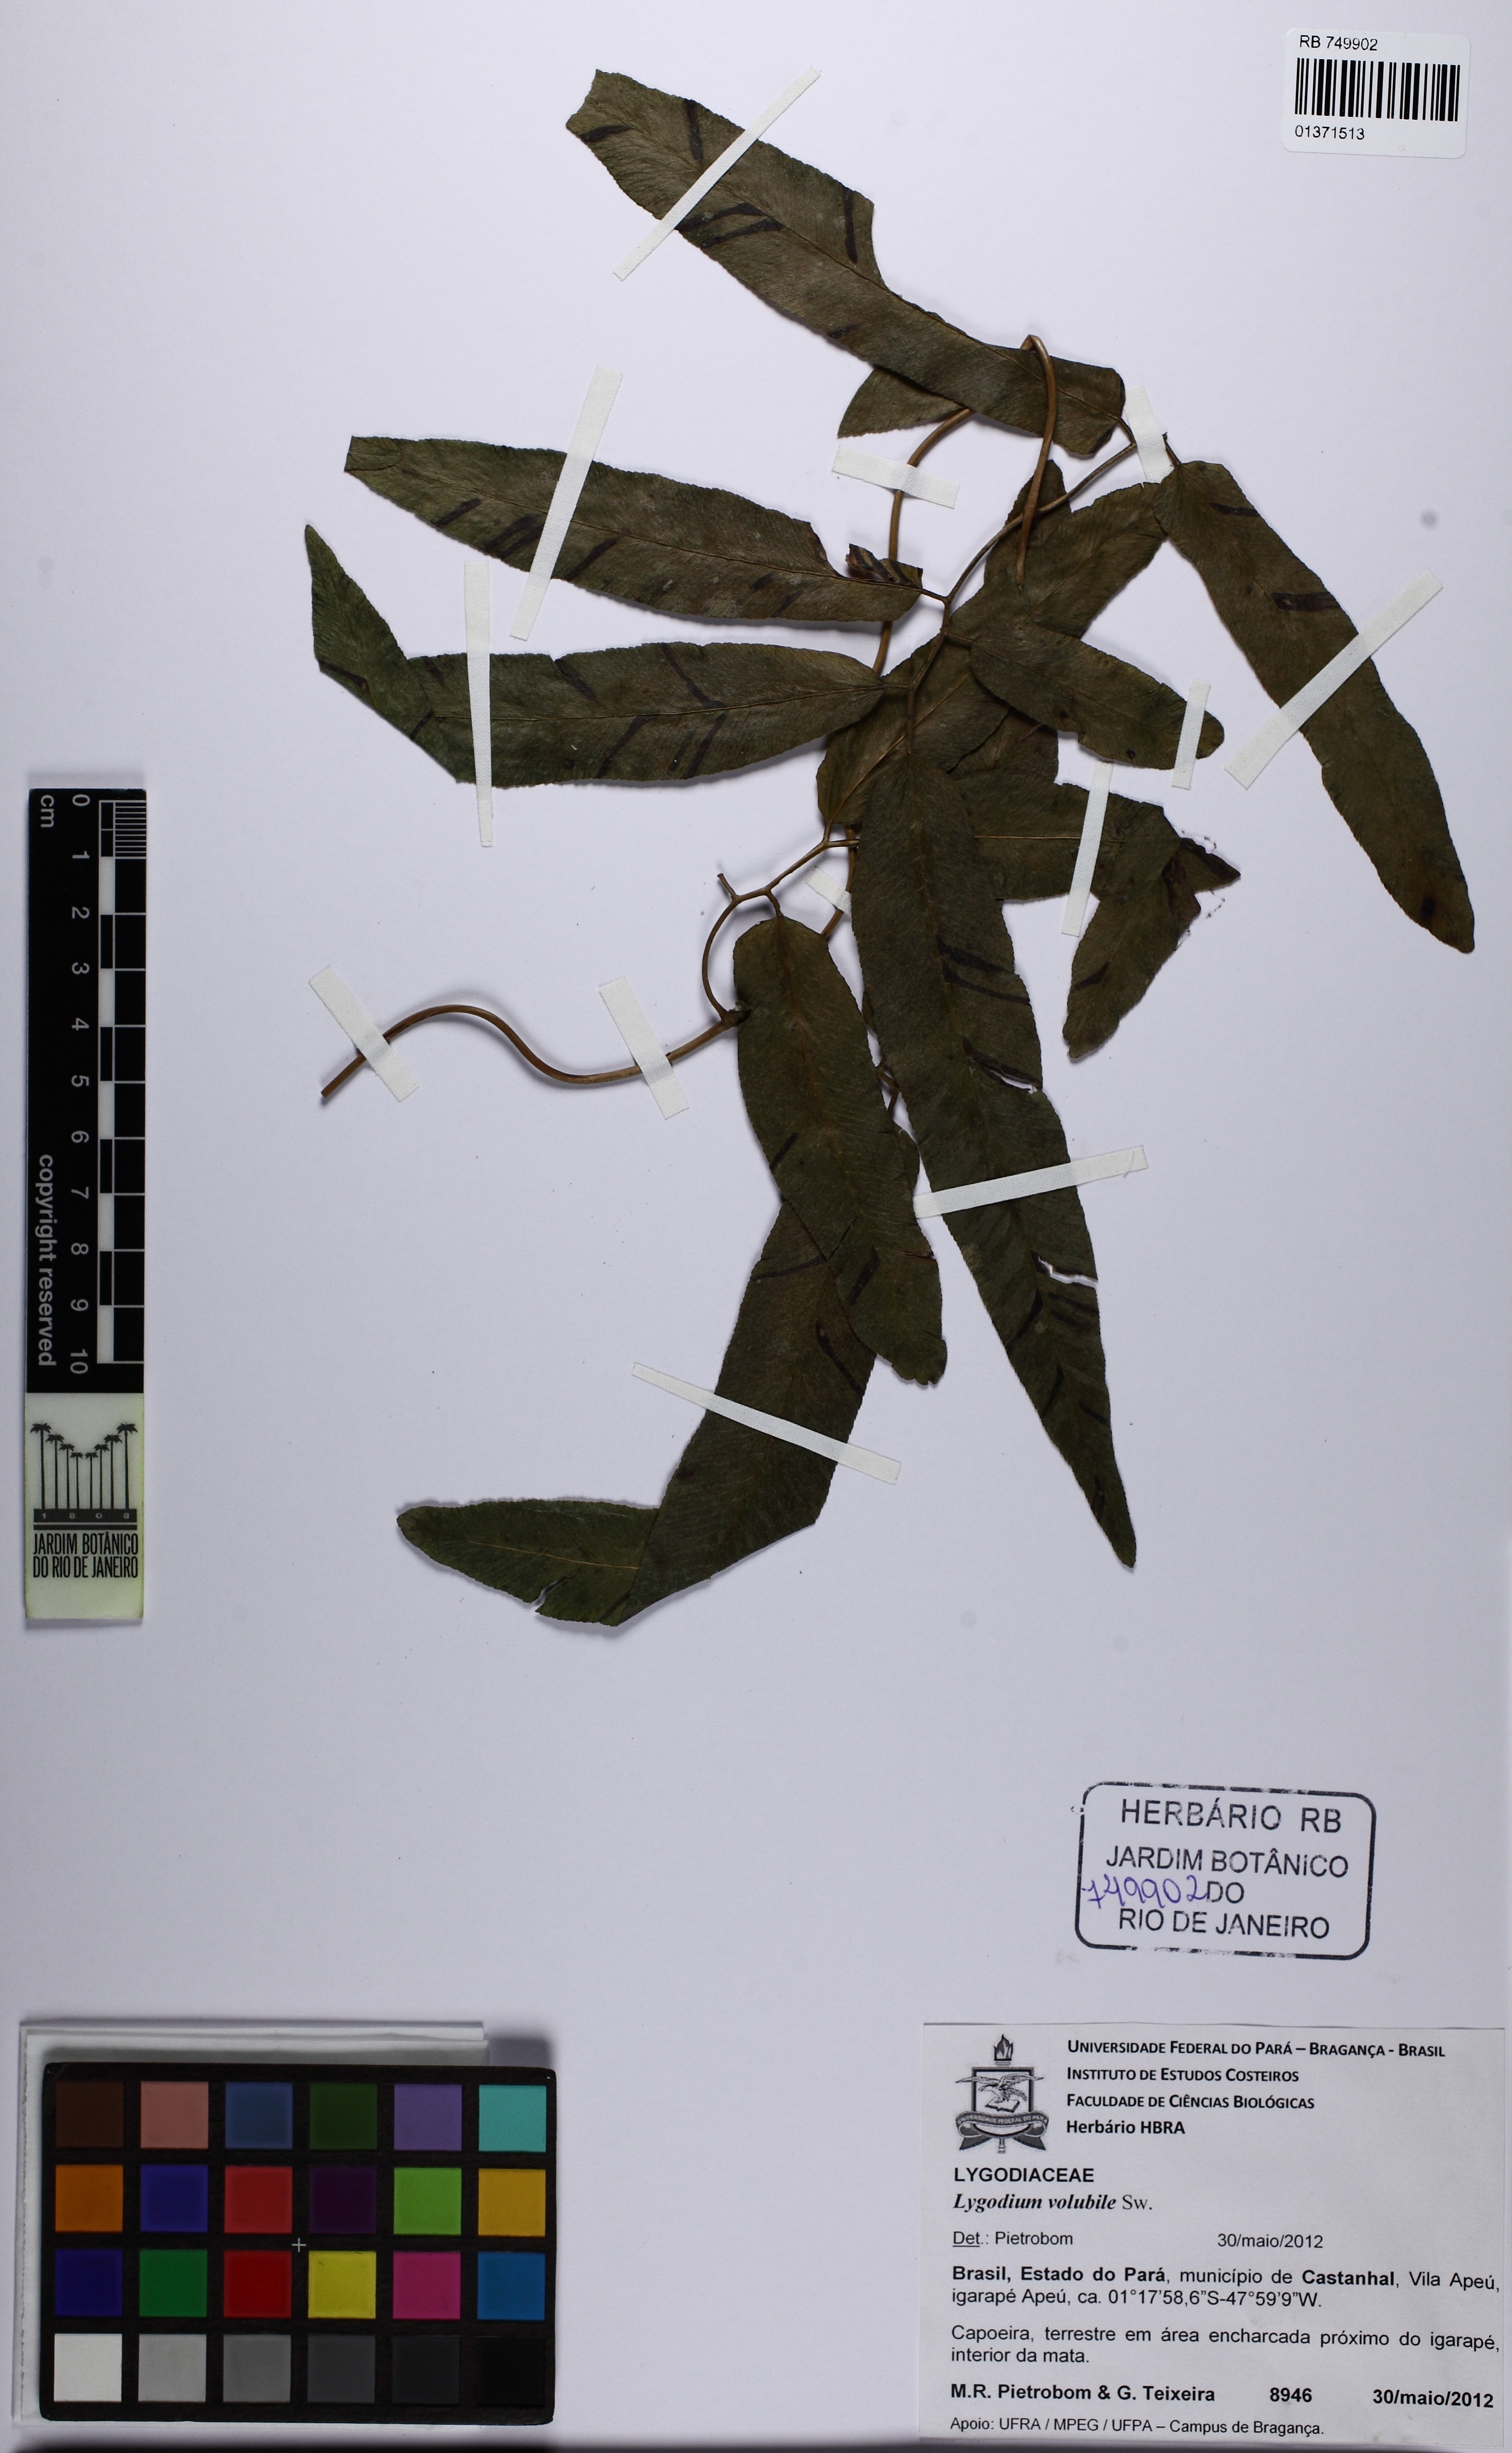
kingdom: Plantae
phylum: Tracheophyta
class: Polypodiopsida
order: Schizaeales
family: Lygodiaceae
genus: Lygodium
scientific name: Lygodium volubile
